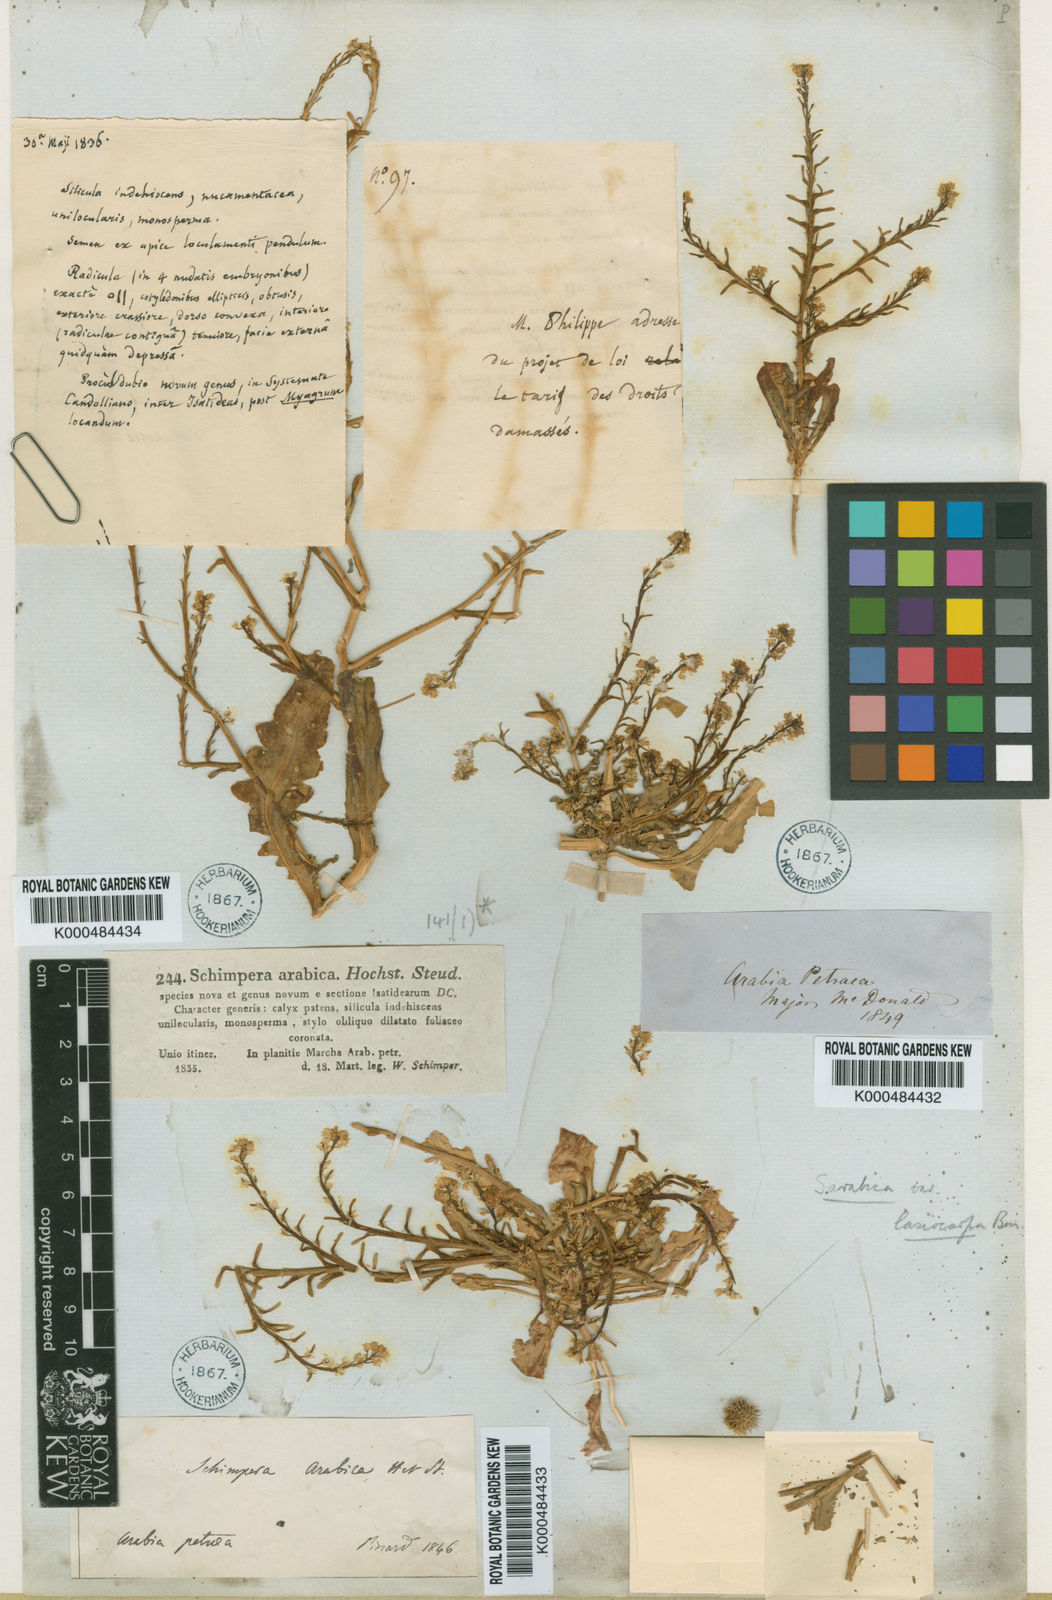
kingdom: Plantae
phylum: Tracheophyta
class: Magnoliopsida
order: Brassicales
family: Brassicaceae
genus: Schimpera
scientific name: Schimpera arabica
